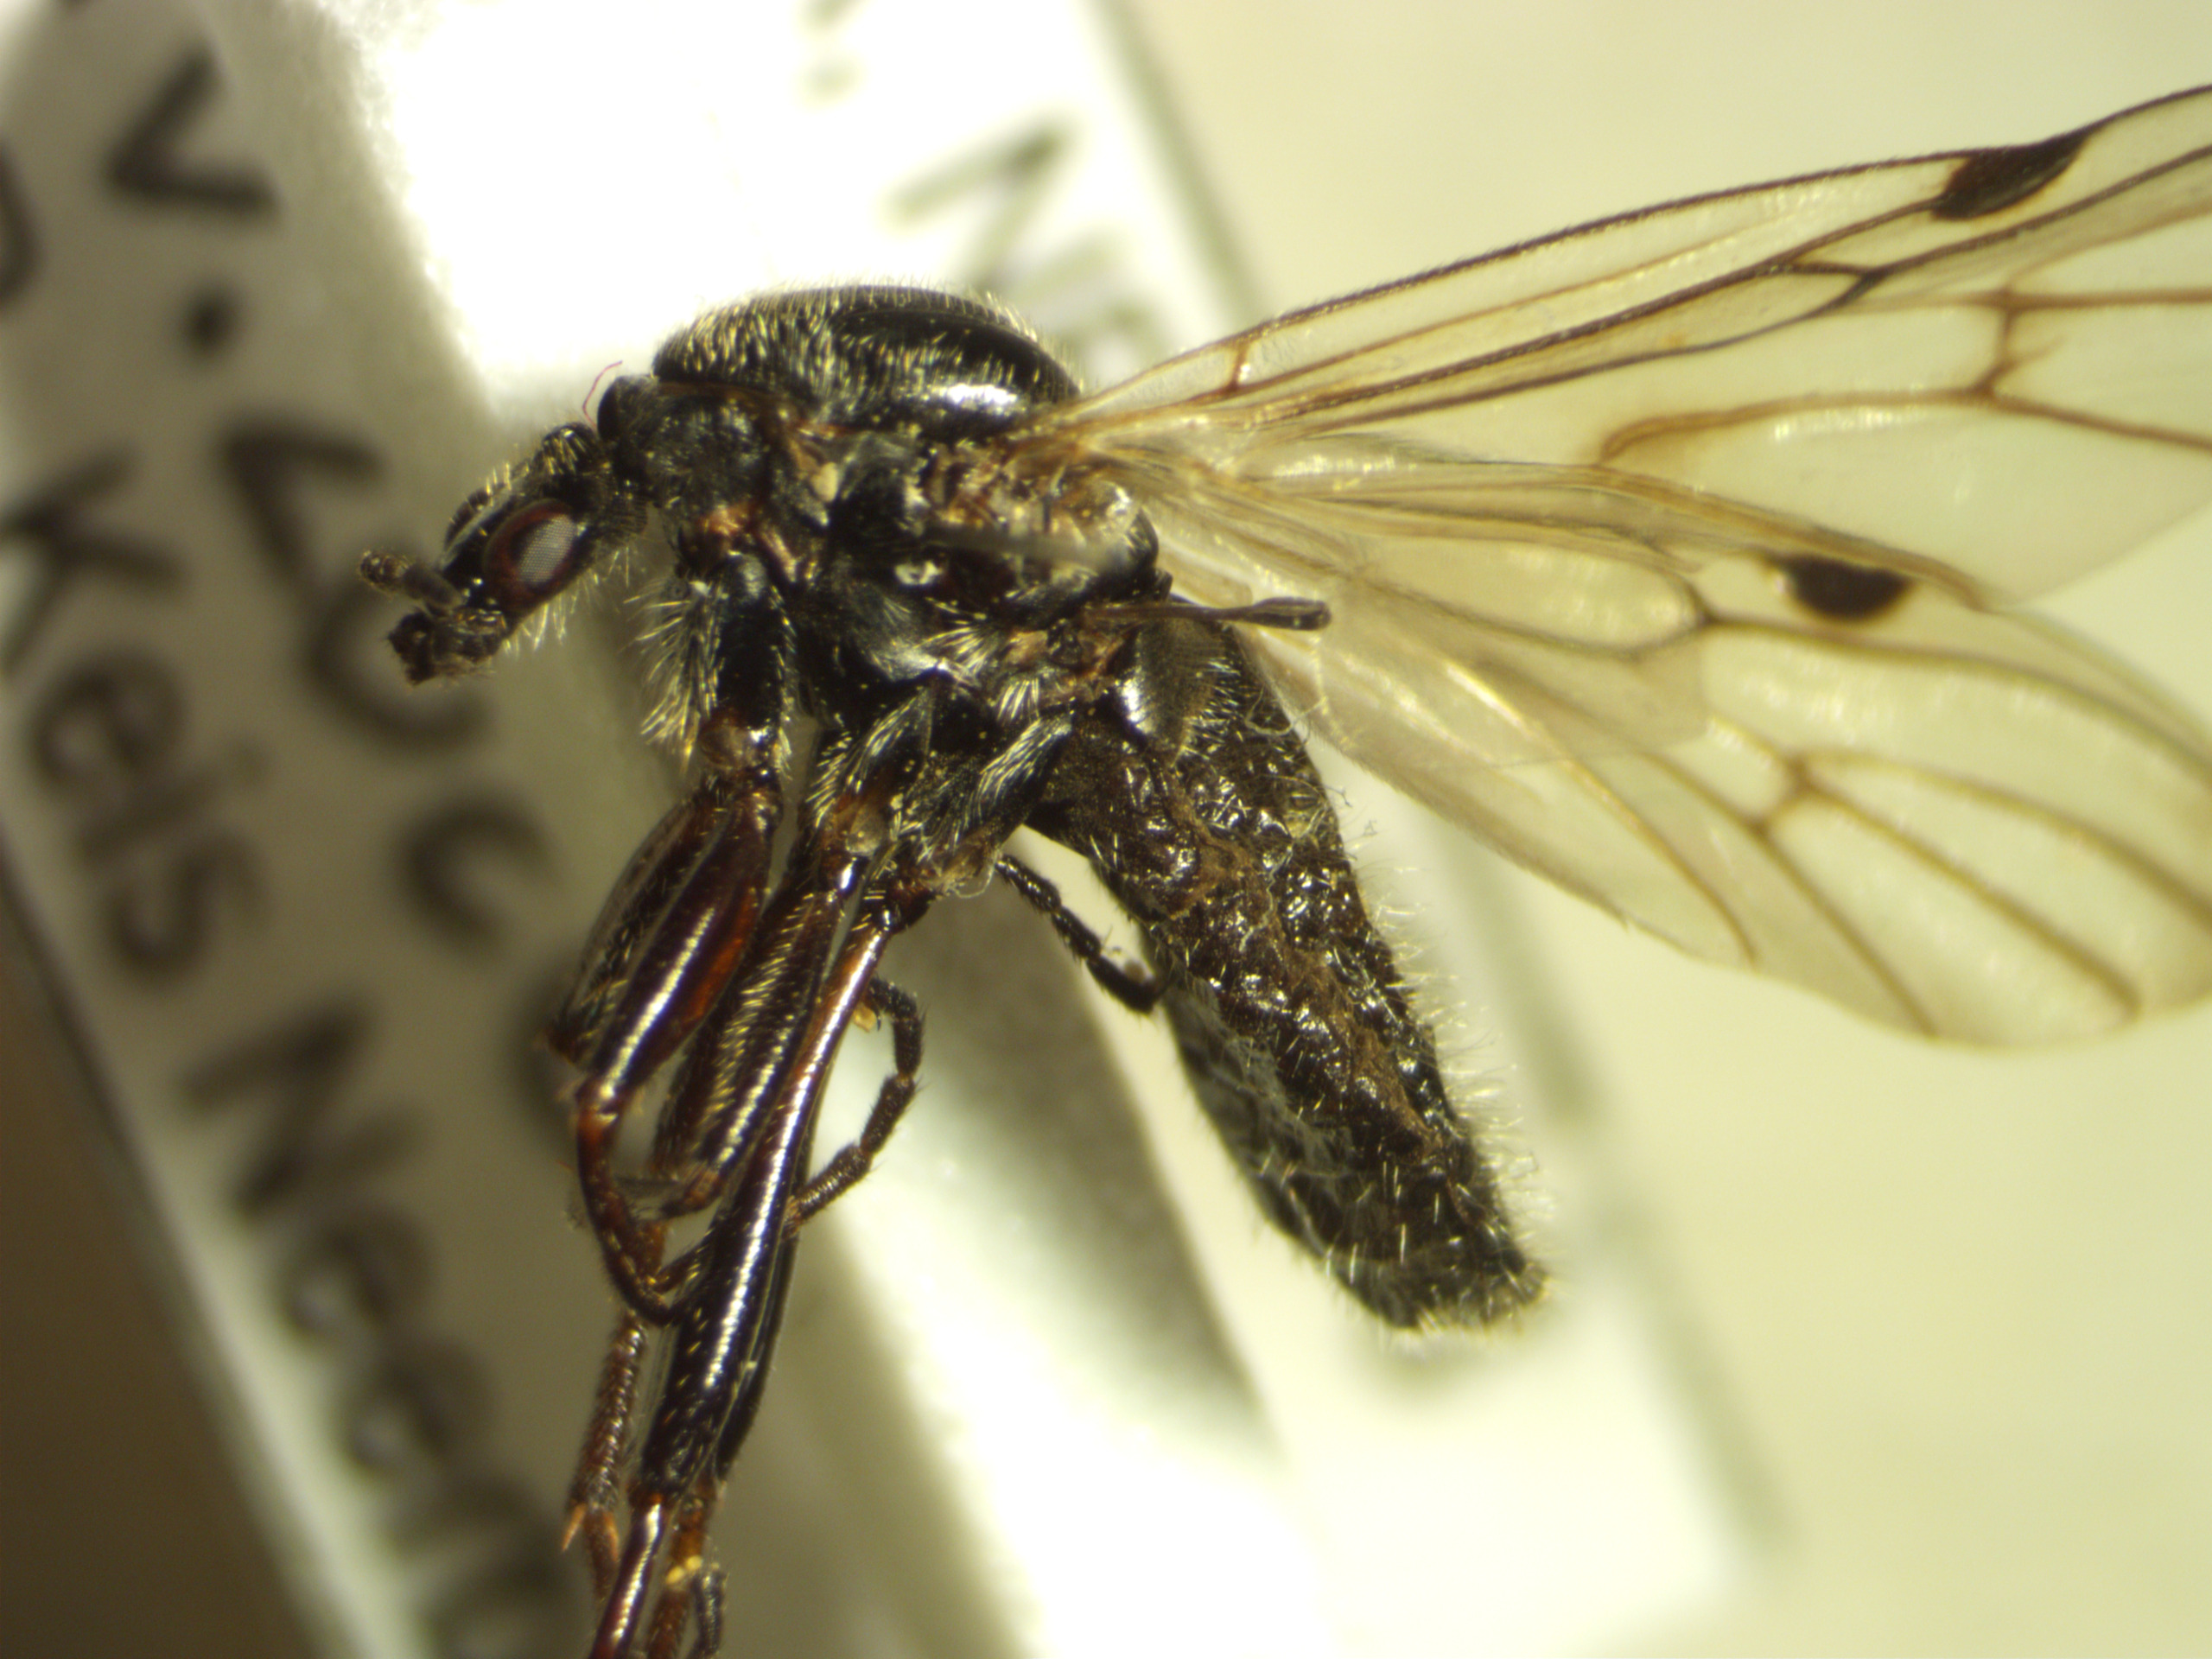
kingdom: Animalia
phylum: Arthropoda
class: Insecta
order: Diptera
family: Bibionidae
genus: Bibio
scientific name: Bibio venosus
